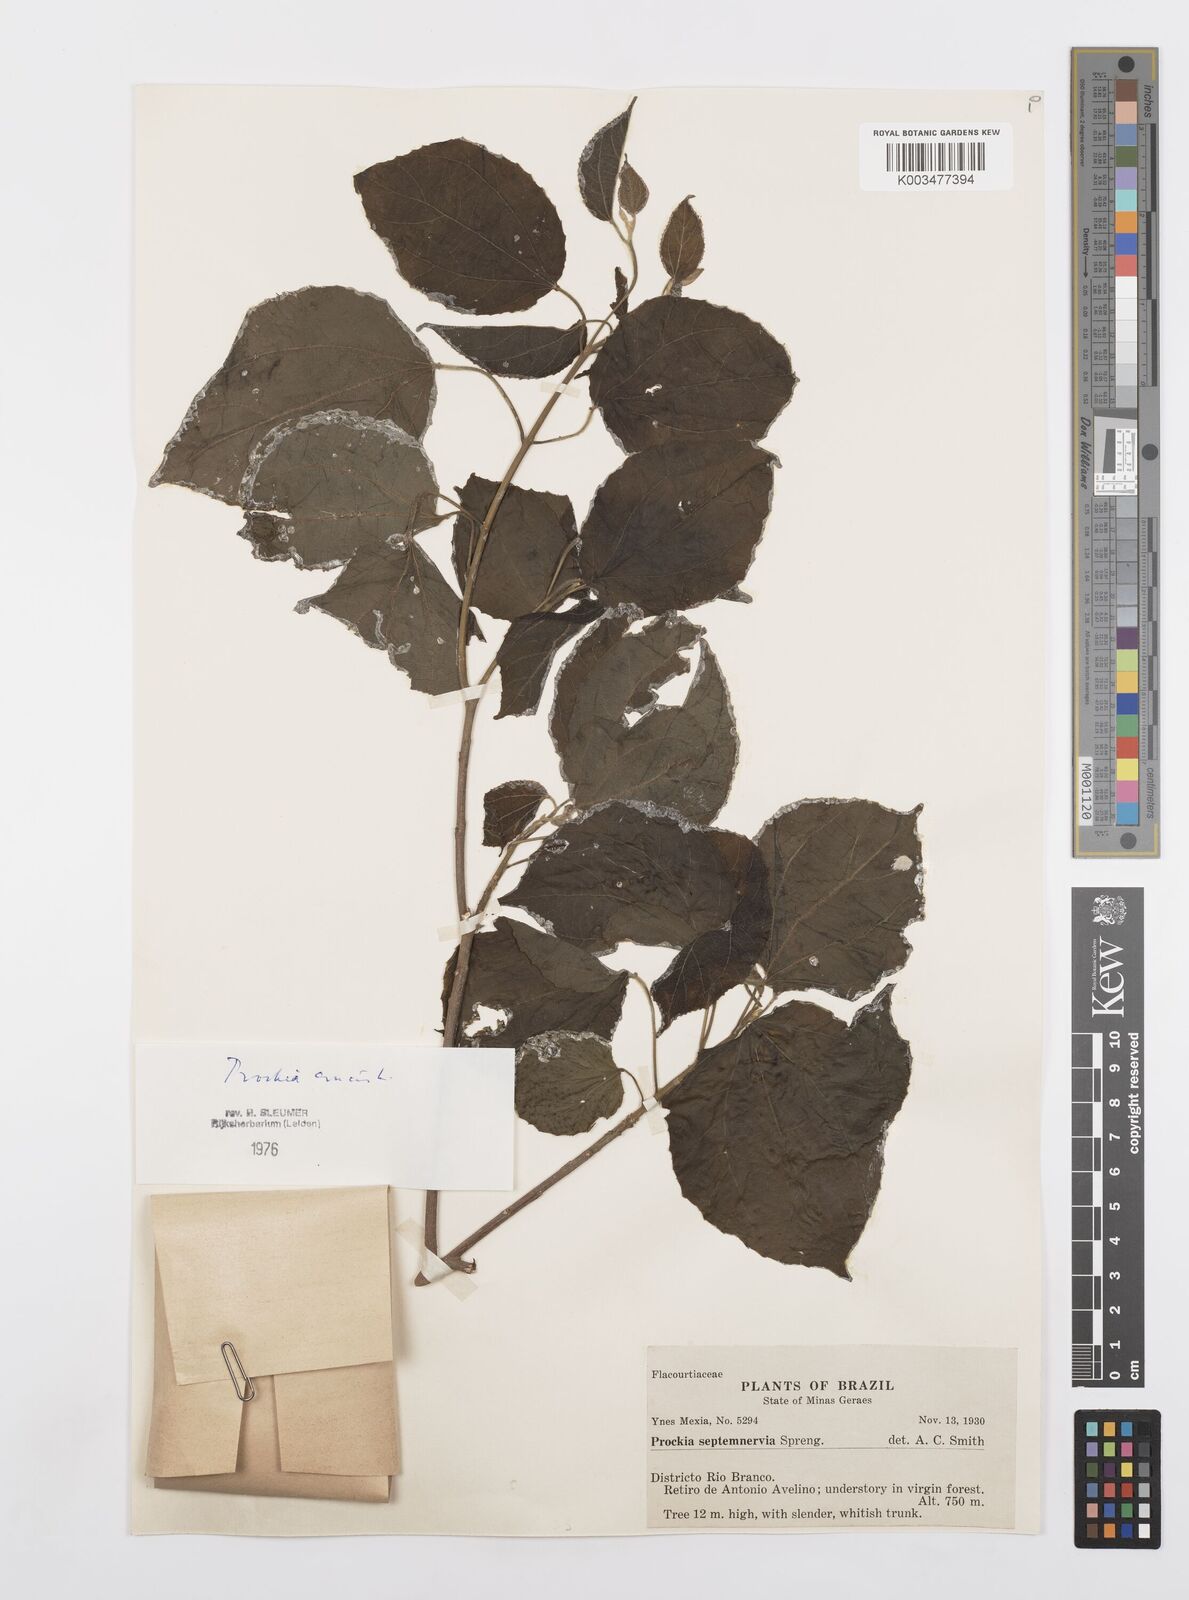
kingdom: Plantae
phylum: Tracheophyta
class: Magnoliopsida
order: Malpighiales
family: Salicaceae
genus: Prockia
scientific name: Prockia crucis
